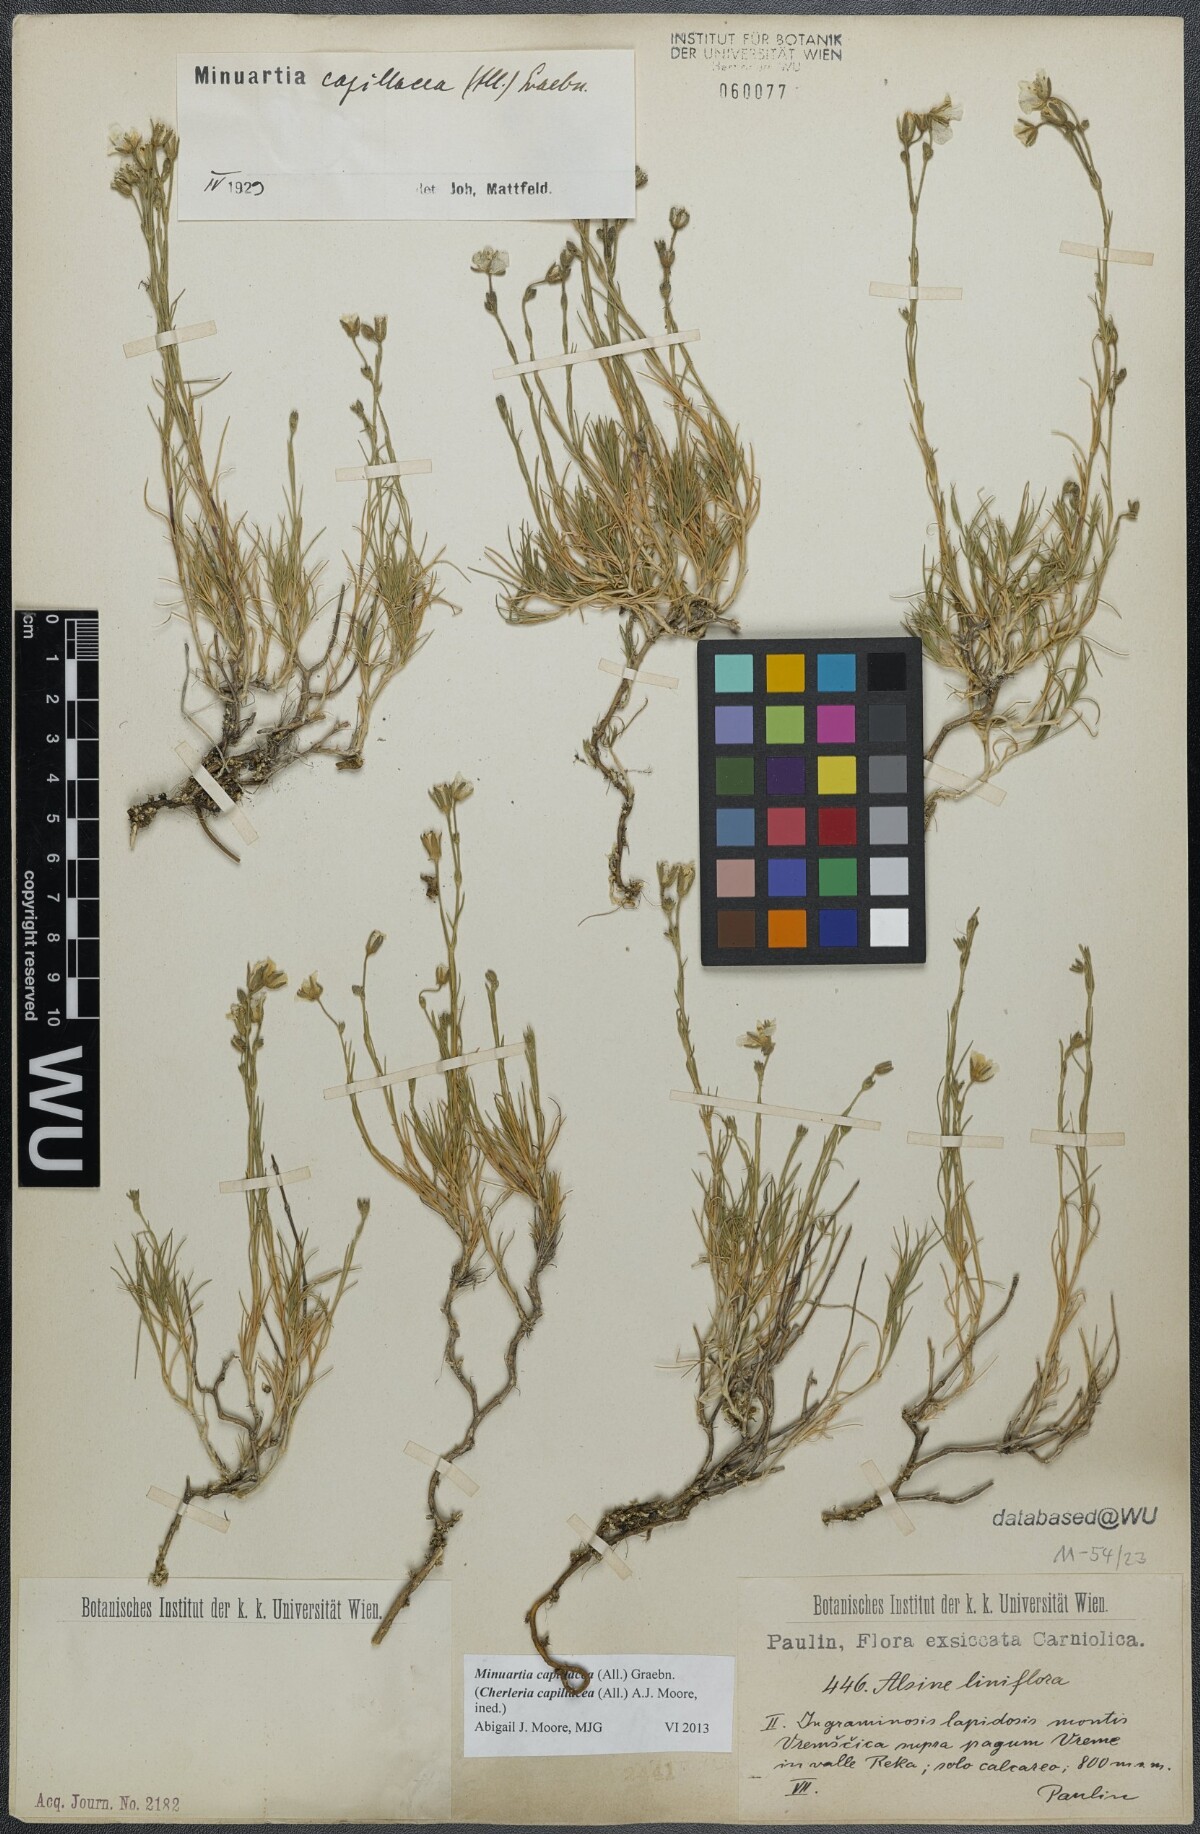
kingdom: Plantae
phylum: Tracheophyta
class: Magnoliopsida
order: Caryophyllales
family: Caryophyllaceae
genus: Cherleria
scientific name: Cherleria capillacea
